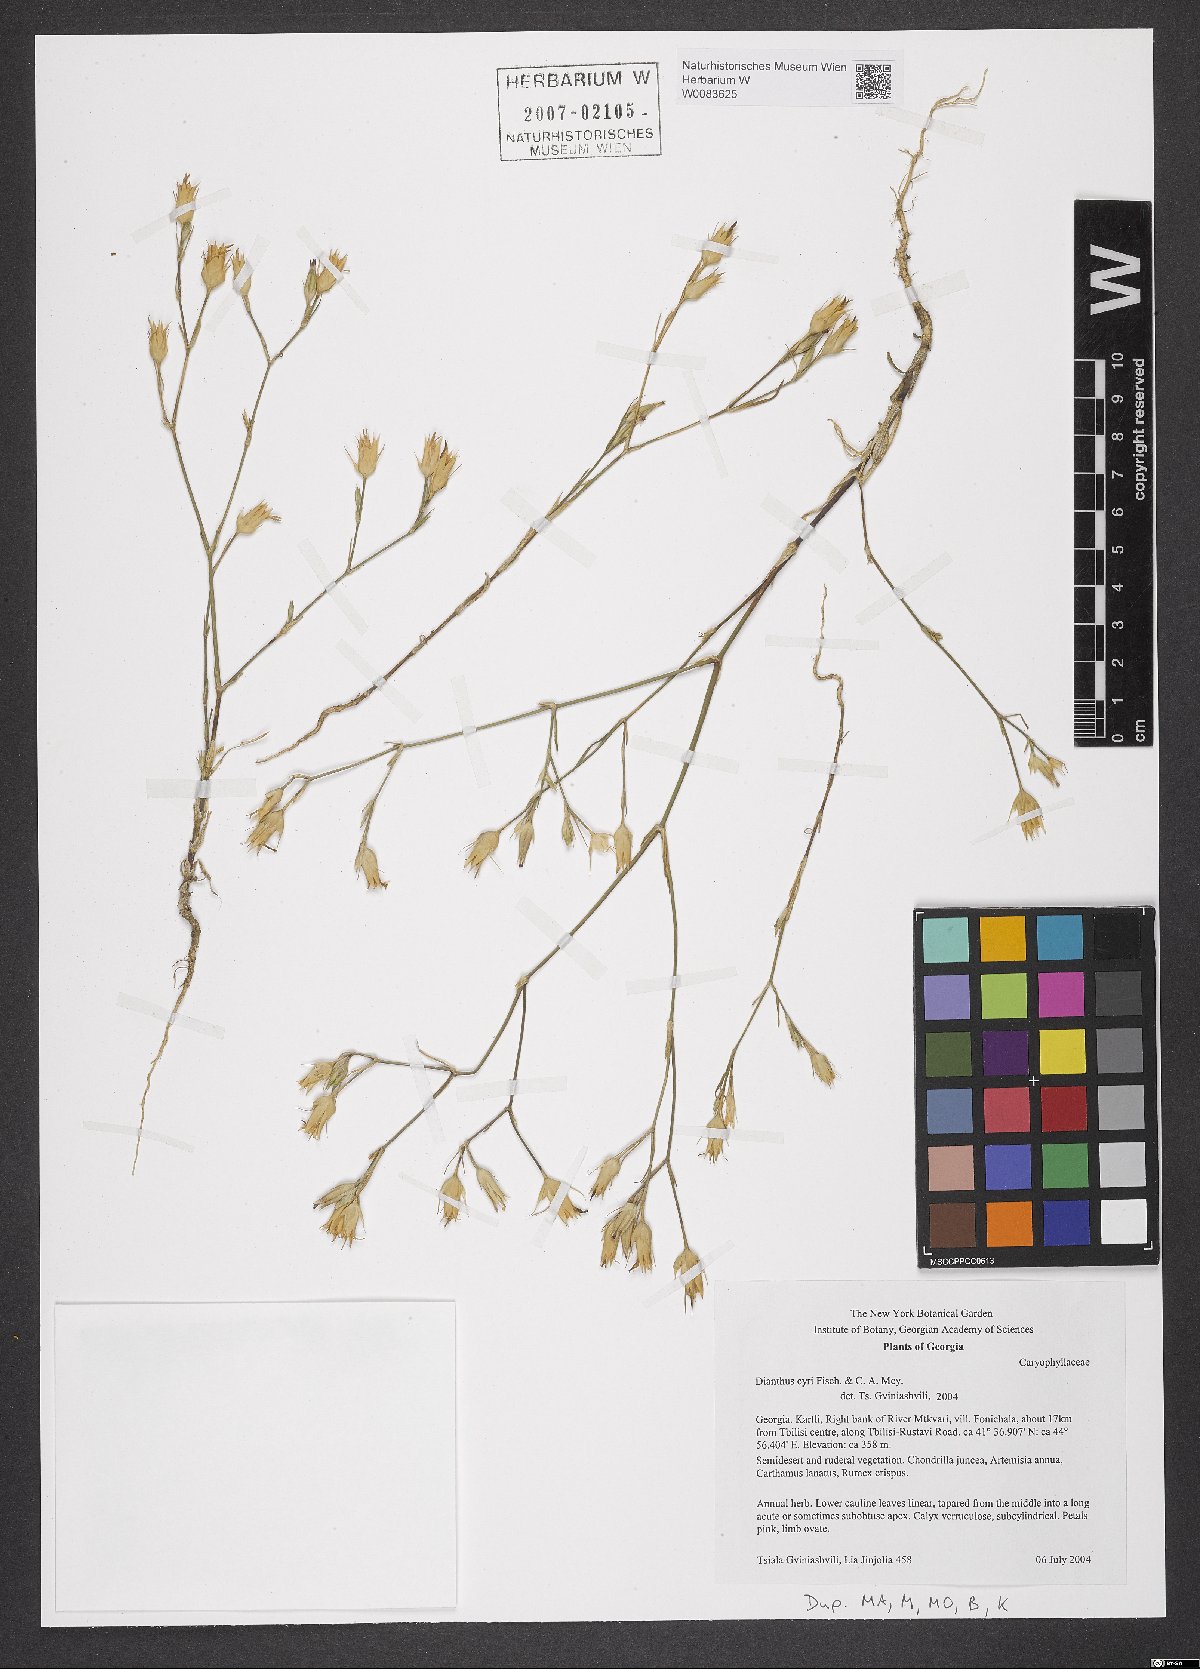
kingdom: Plantae
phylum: Tracheophyta
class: Magnoliopsida
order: Caryophyllales
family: Caryophyllaceae
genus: Dianthus
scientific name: Dianthus cyri
